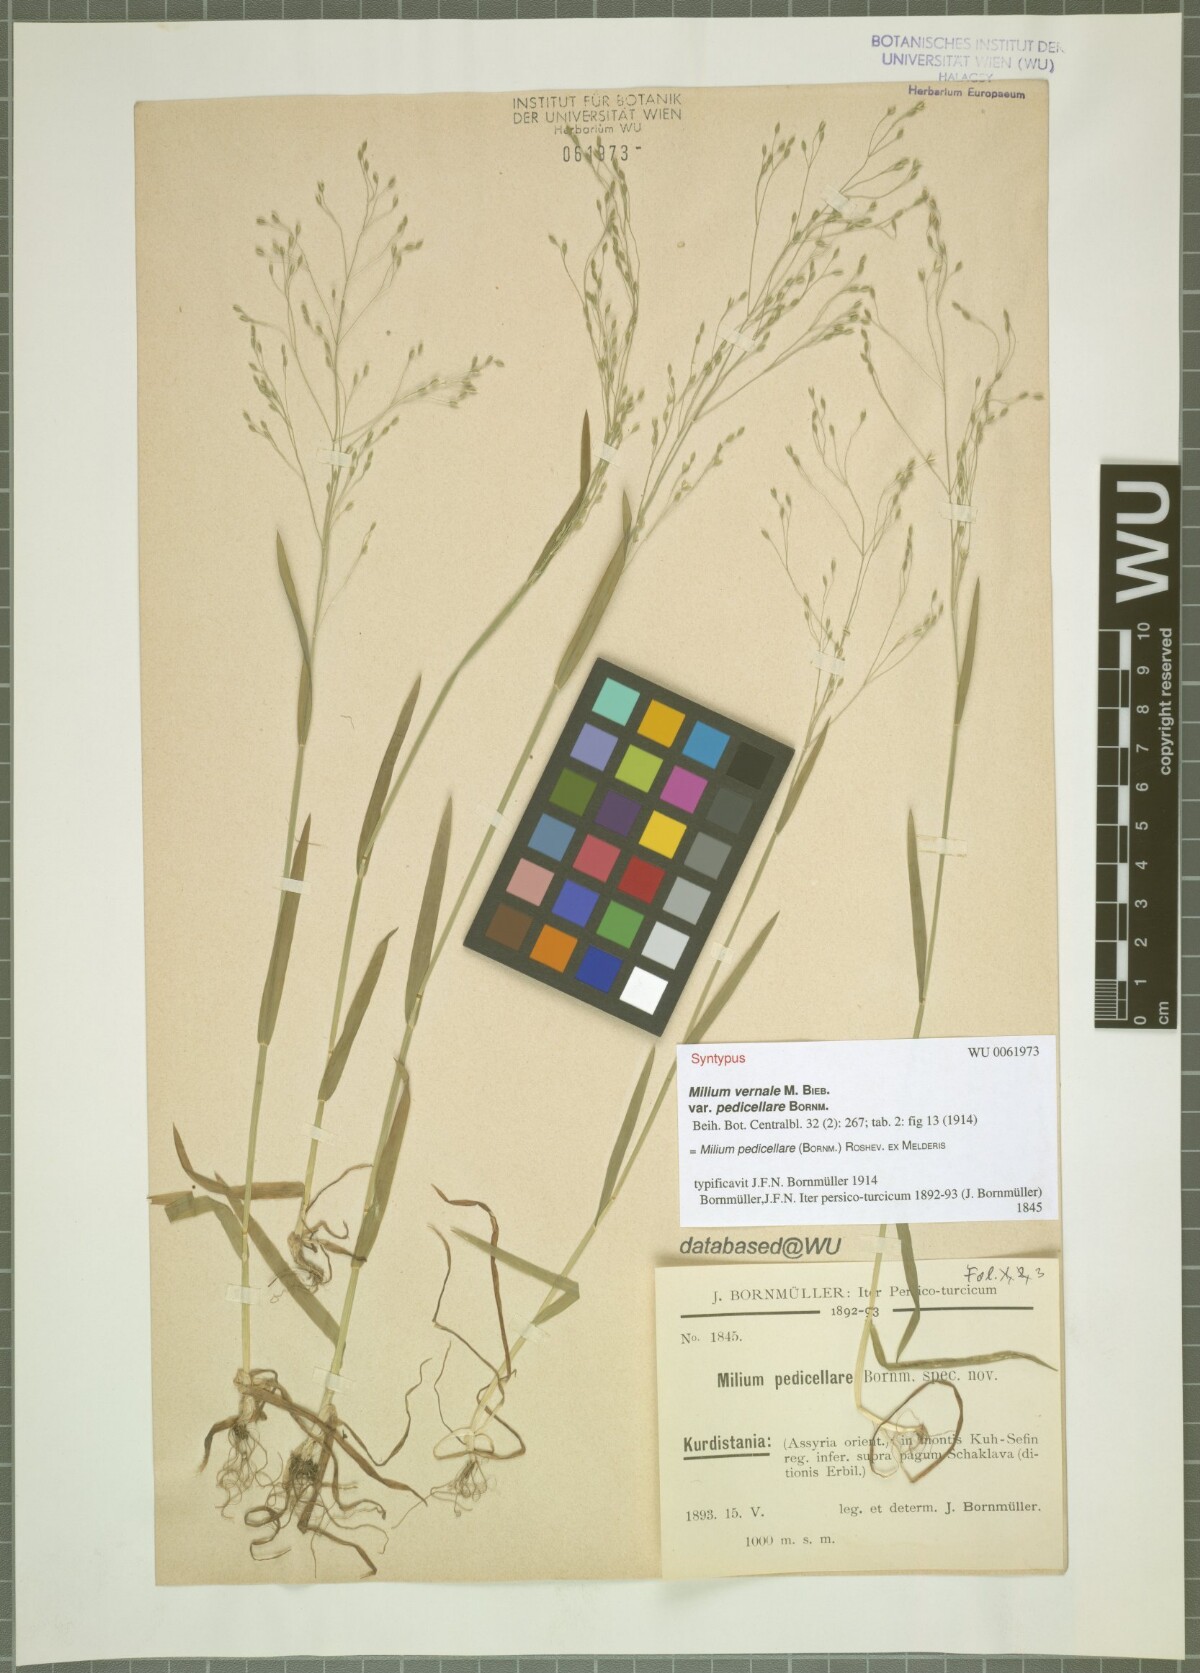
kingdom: Plantae
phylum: Tracheophyta
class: Liliopsida
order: Poales
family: Poaceae
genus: Milium
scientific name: Milium pedicellare
